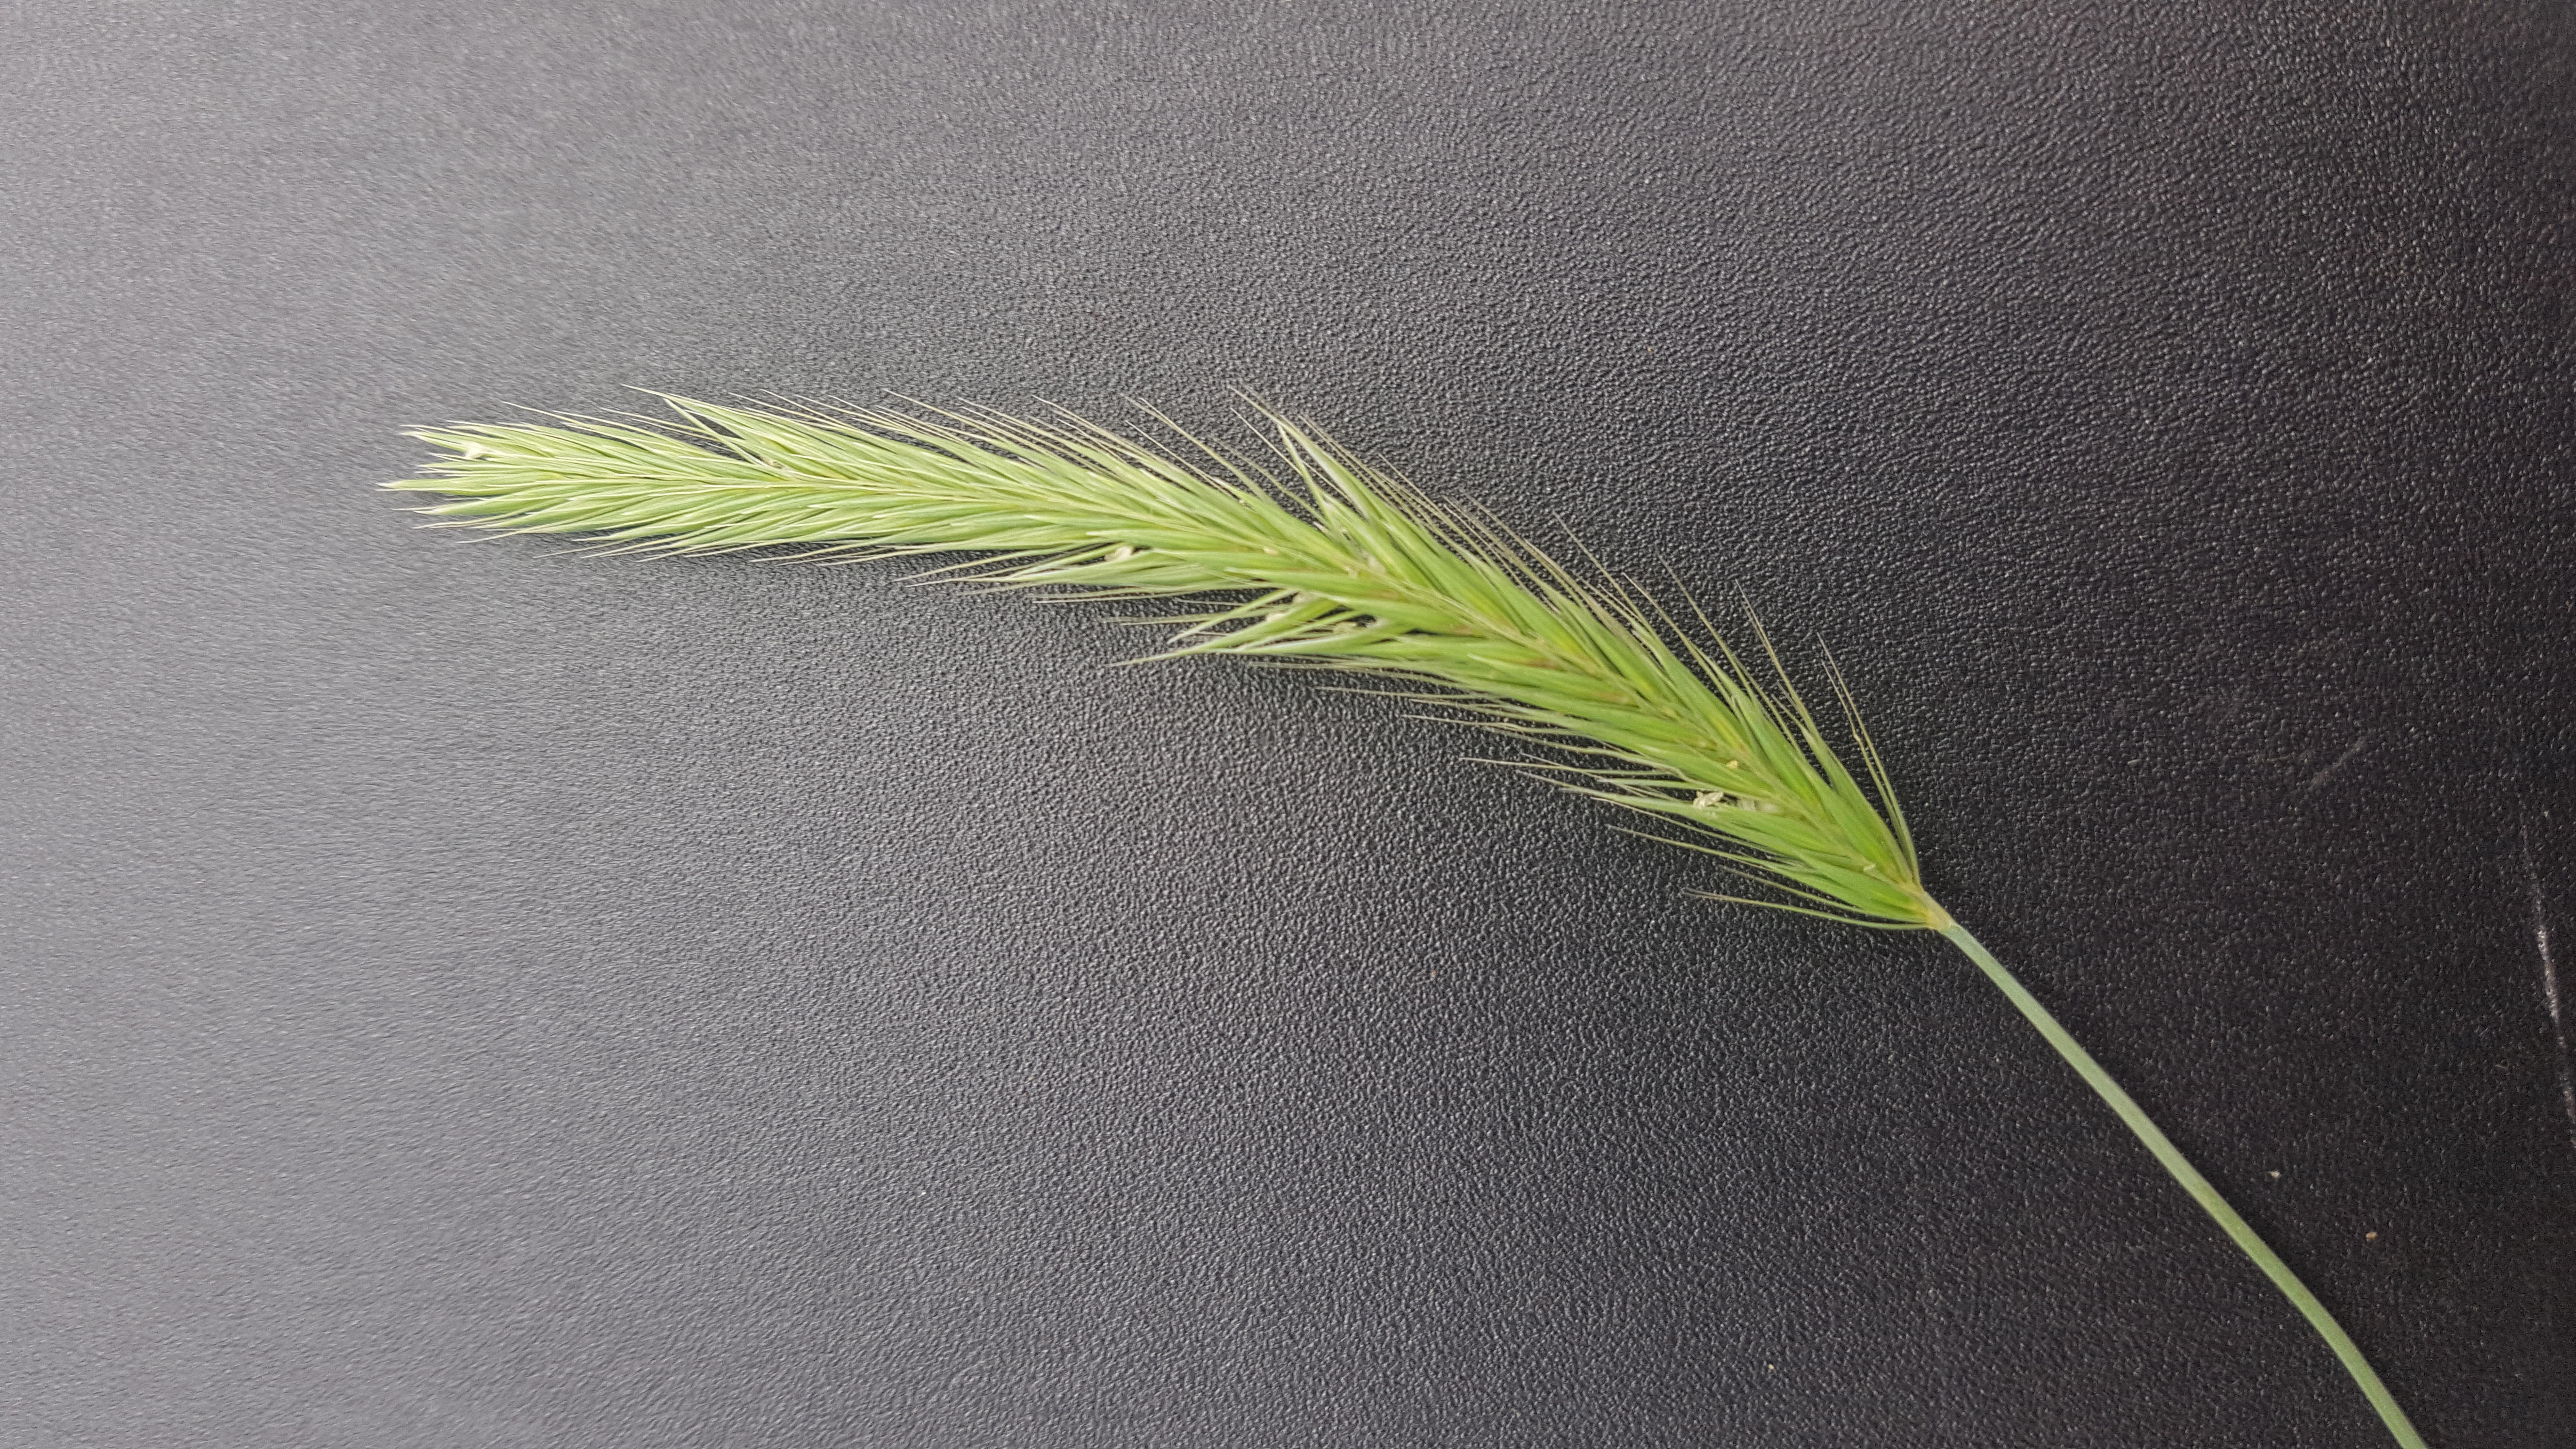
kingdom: Plantae
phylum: Tracheophyta
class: Liliopsida
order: Poales
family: Poaceae
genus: Hordeum
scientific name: Hordeum patagonicum
